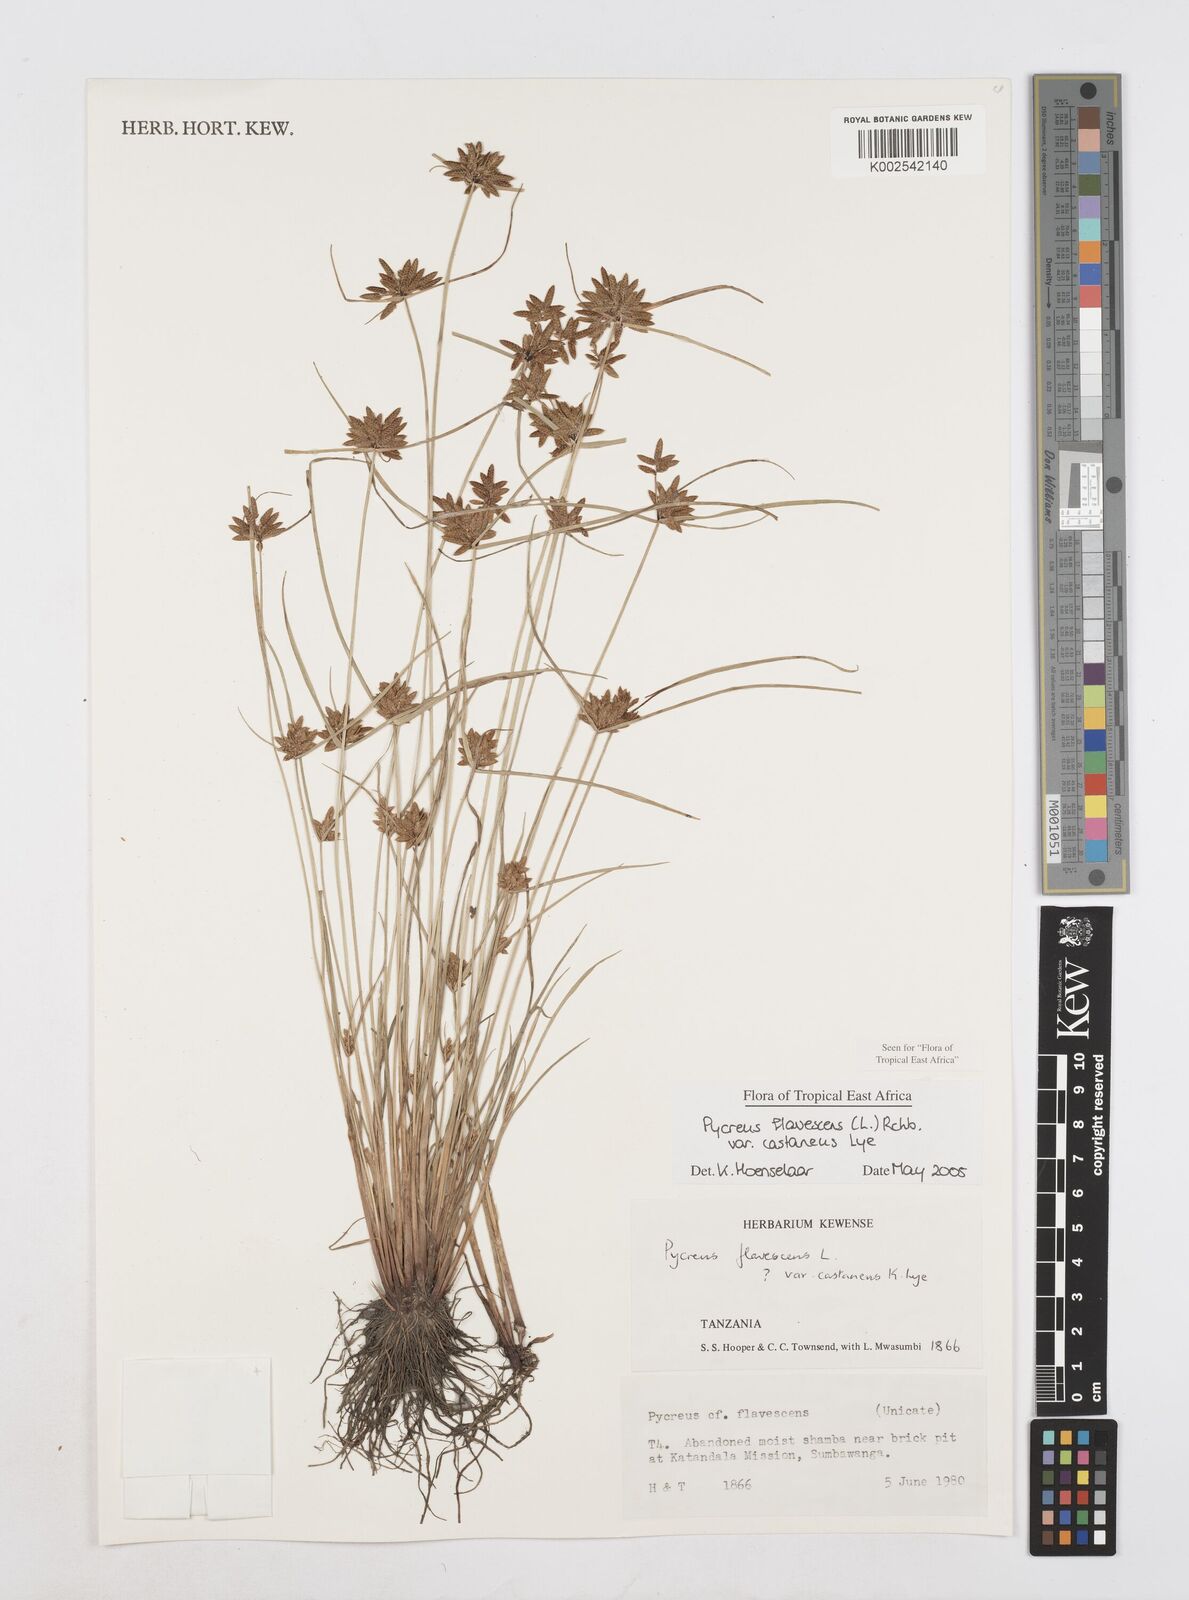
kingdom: Plantae
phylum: Tracheophyta
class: Liliopsida
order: Poales
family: Cyperaceae
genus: Cyperus
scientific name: Cyperus flavescens
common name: Yellow galingale
